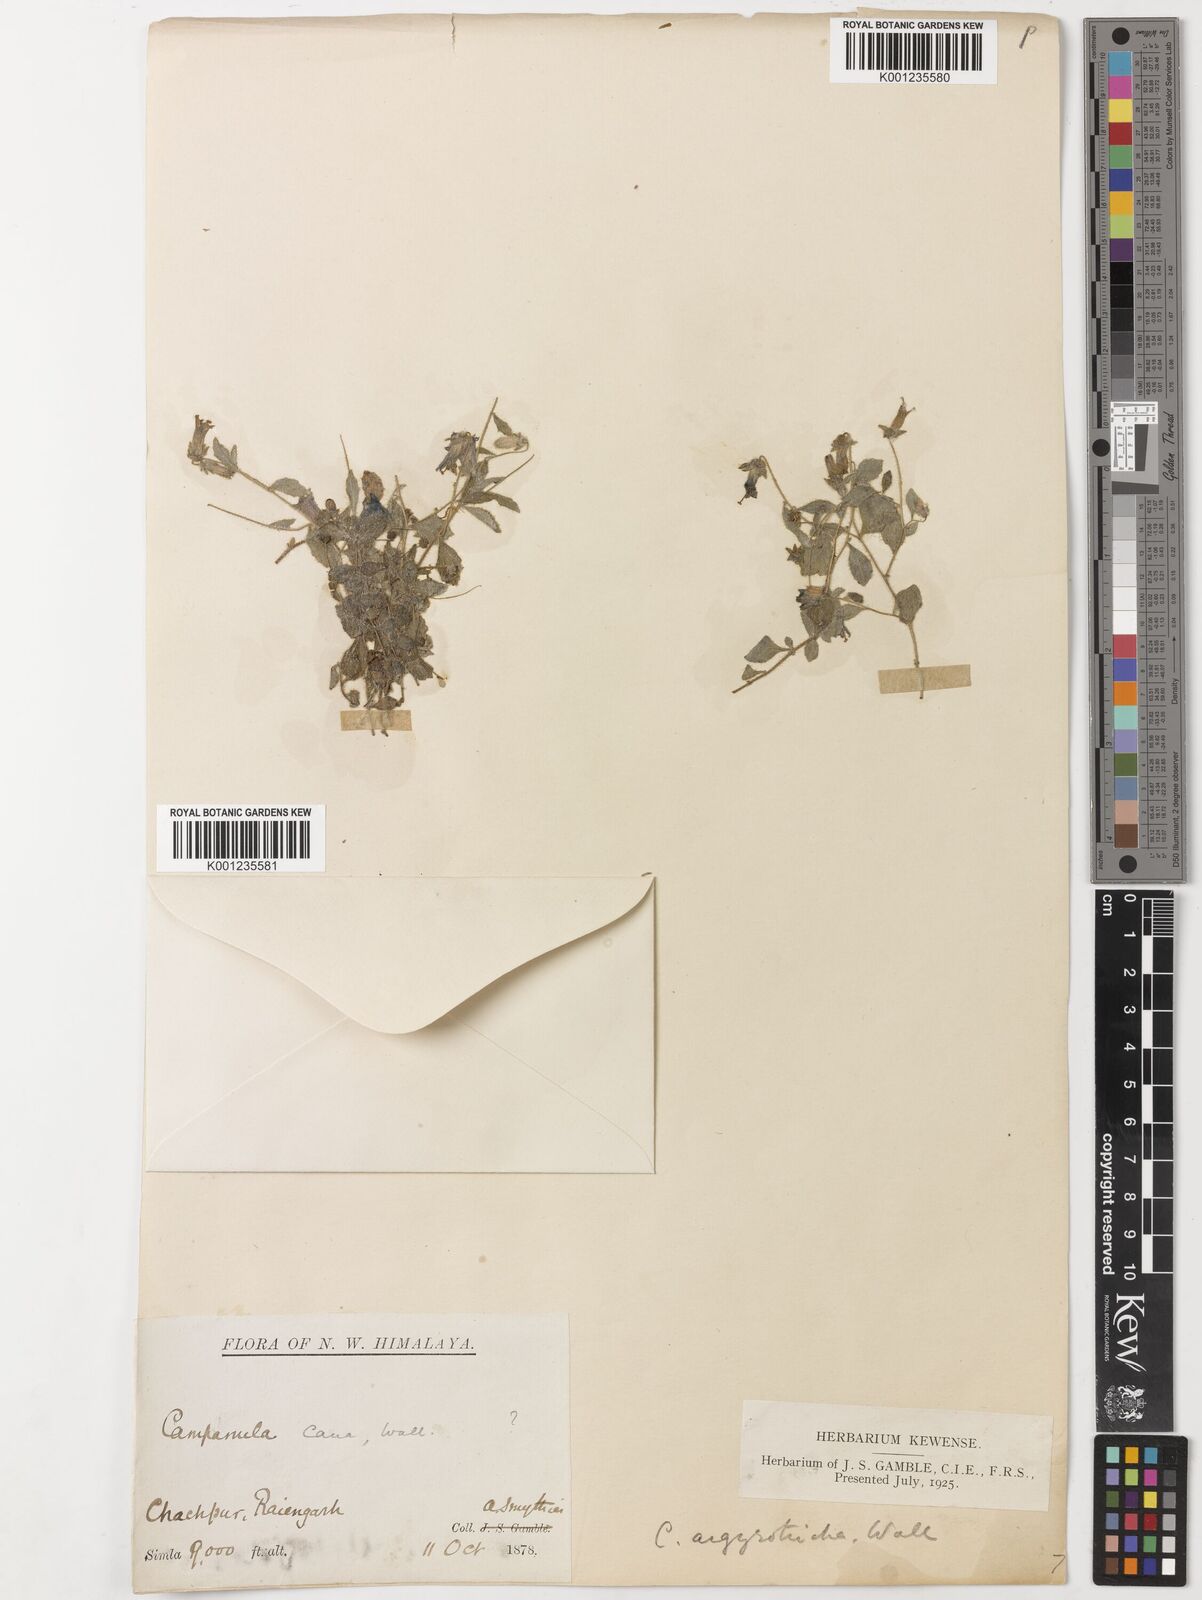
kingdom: Plantae
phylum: Tracheophyta
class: Magnoliopsida
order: Asterales
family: Campanulaceae
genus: Campanula
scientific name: Campanula argyrotricha
